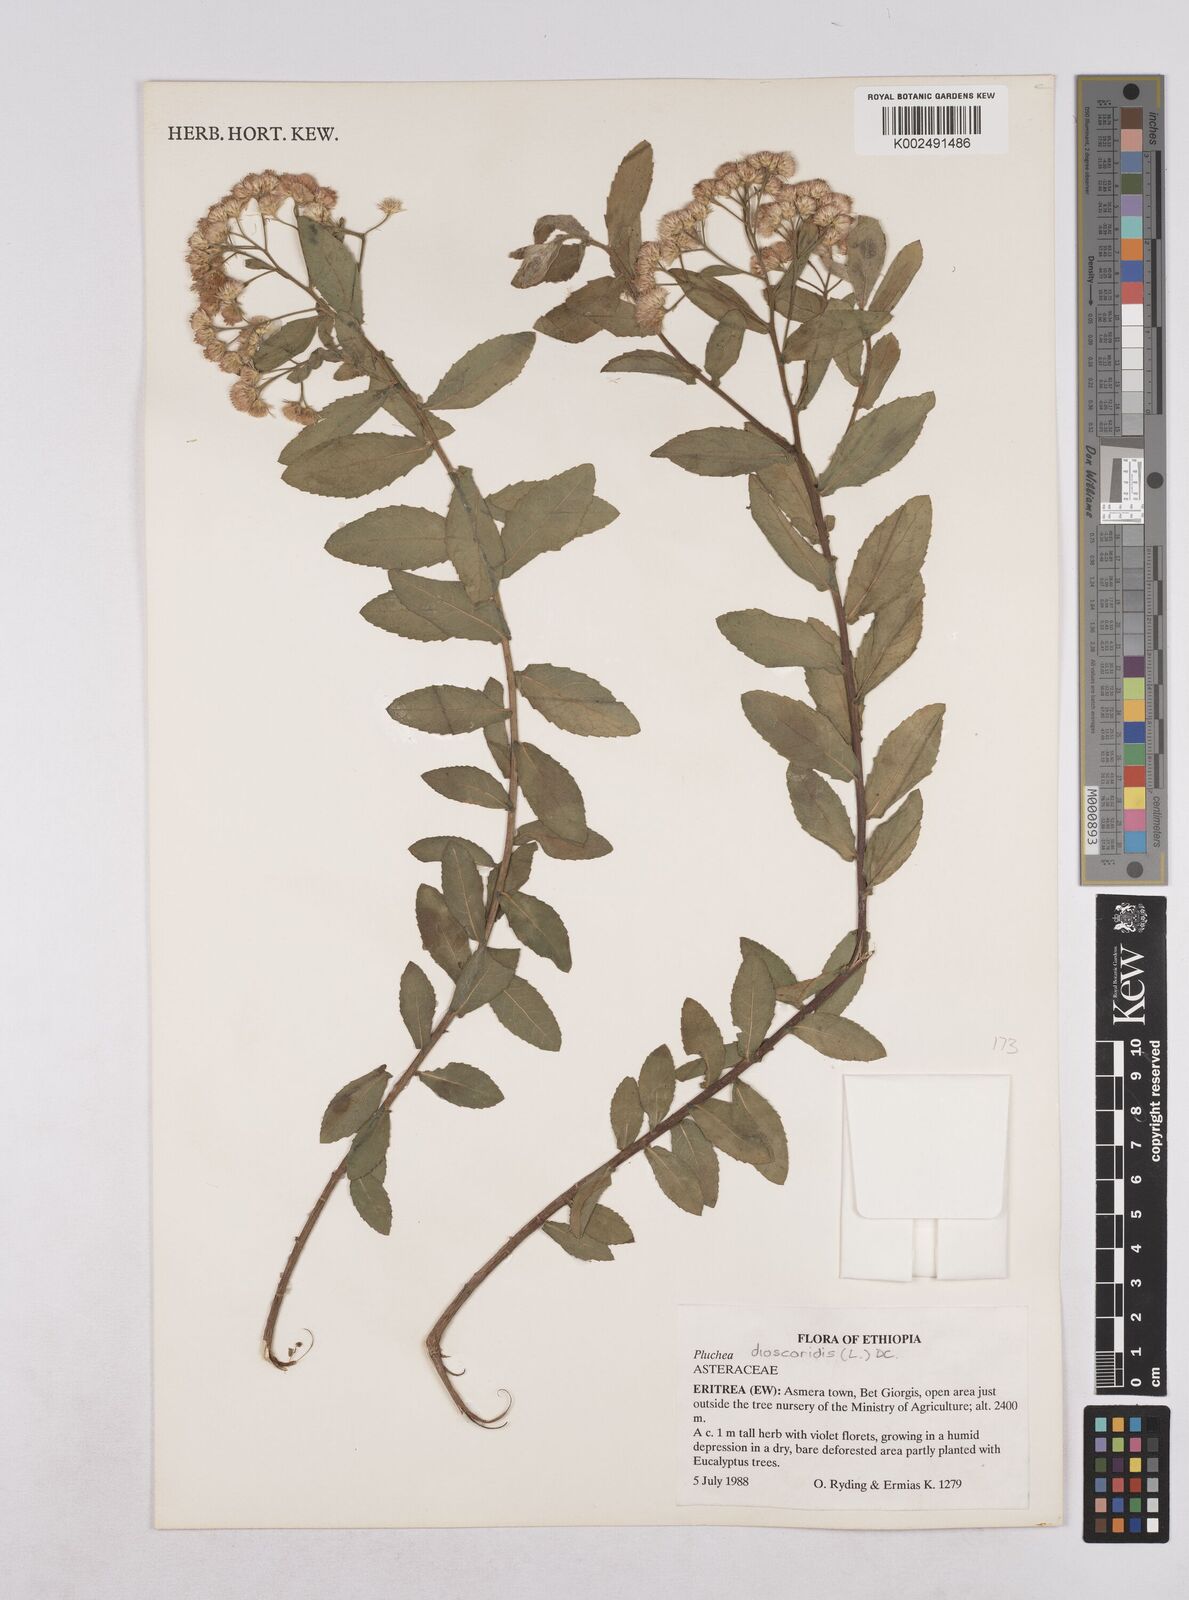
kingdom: Plantae
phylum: Tracheophyta
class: Magnoliopsida
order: Asterales
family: Asteraceae
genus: Pluchea
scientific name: Pluchea dioscoridis
